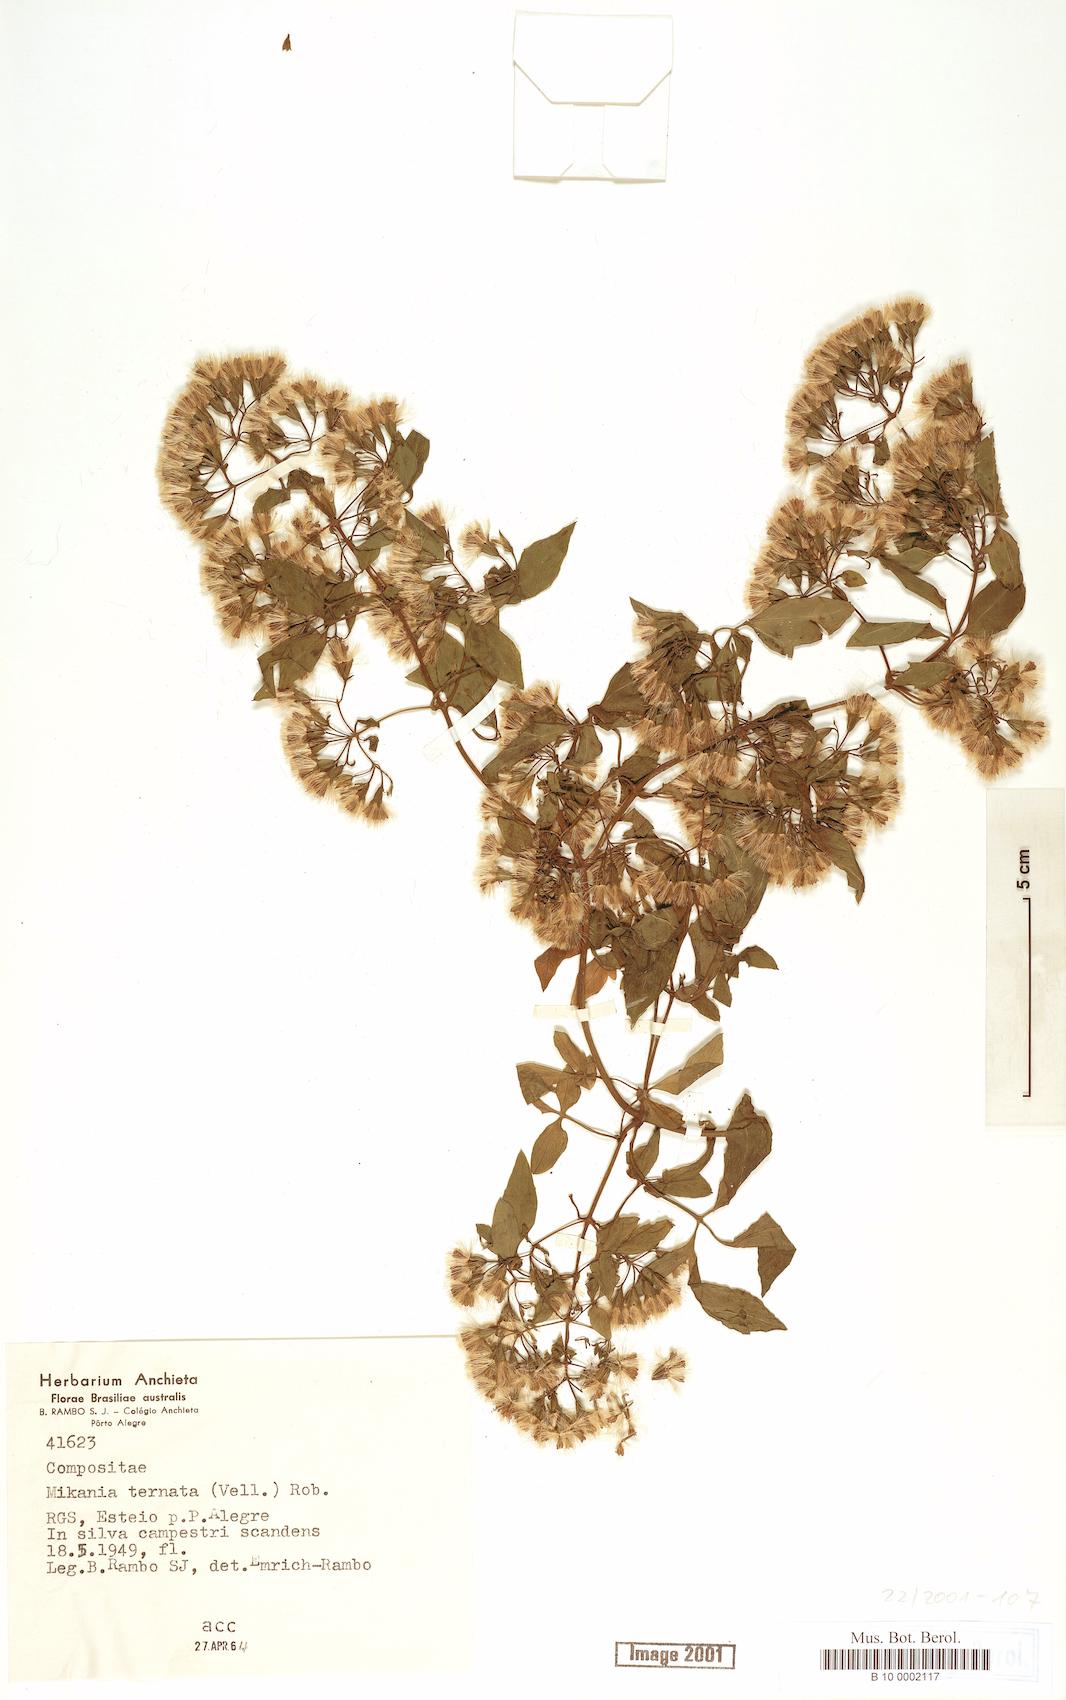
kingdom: Plantae
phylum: Tracheophyta
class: Magnoliopsida
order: Asterales
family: Asteraceae
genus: Mikania
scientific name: Mikania ternata
